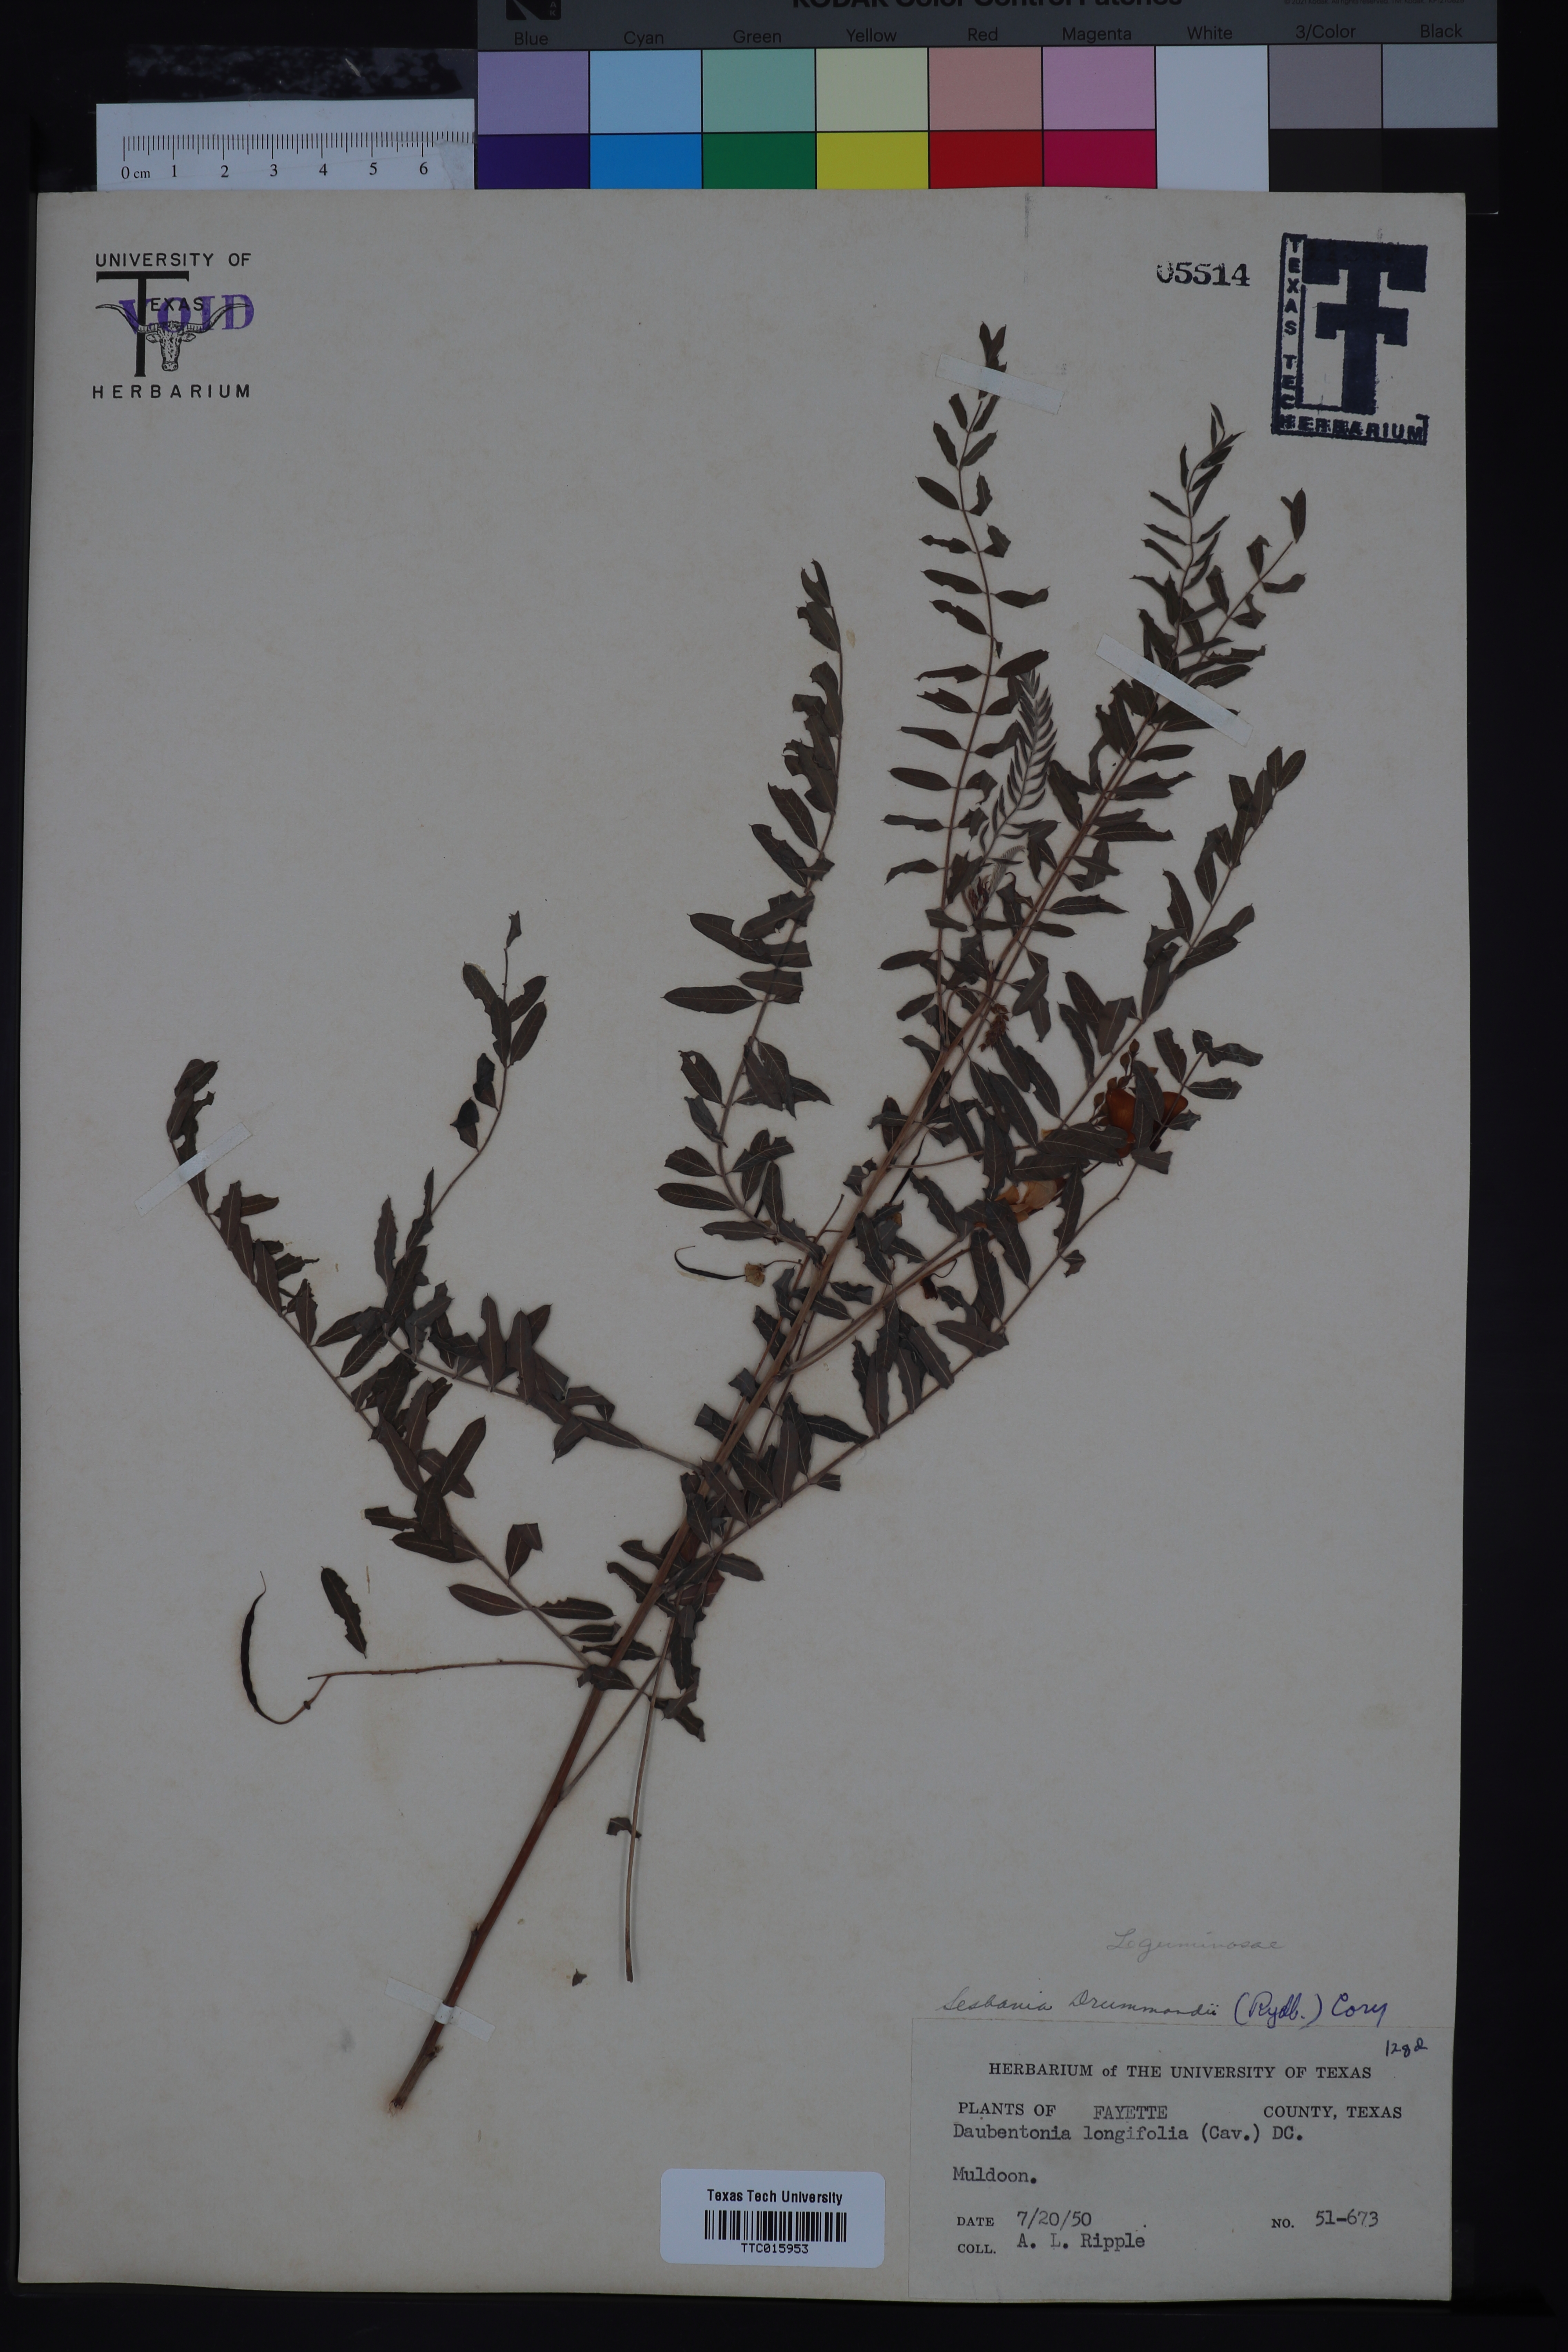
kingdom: Plantae
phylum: Tracheophyta
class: Magnoliopsida
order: Fabales
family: Fabaceae
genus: Sesbania
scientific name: Sesbania drummondii
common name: Poison-bean
